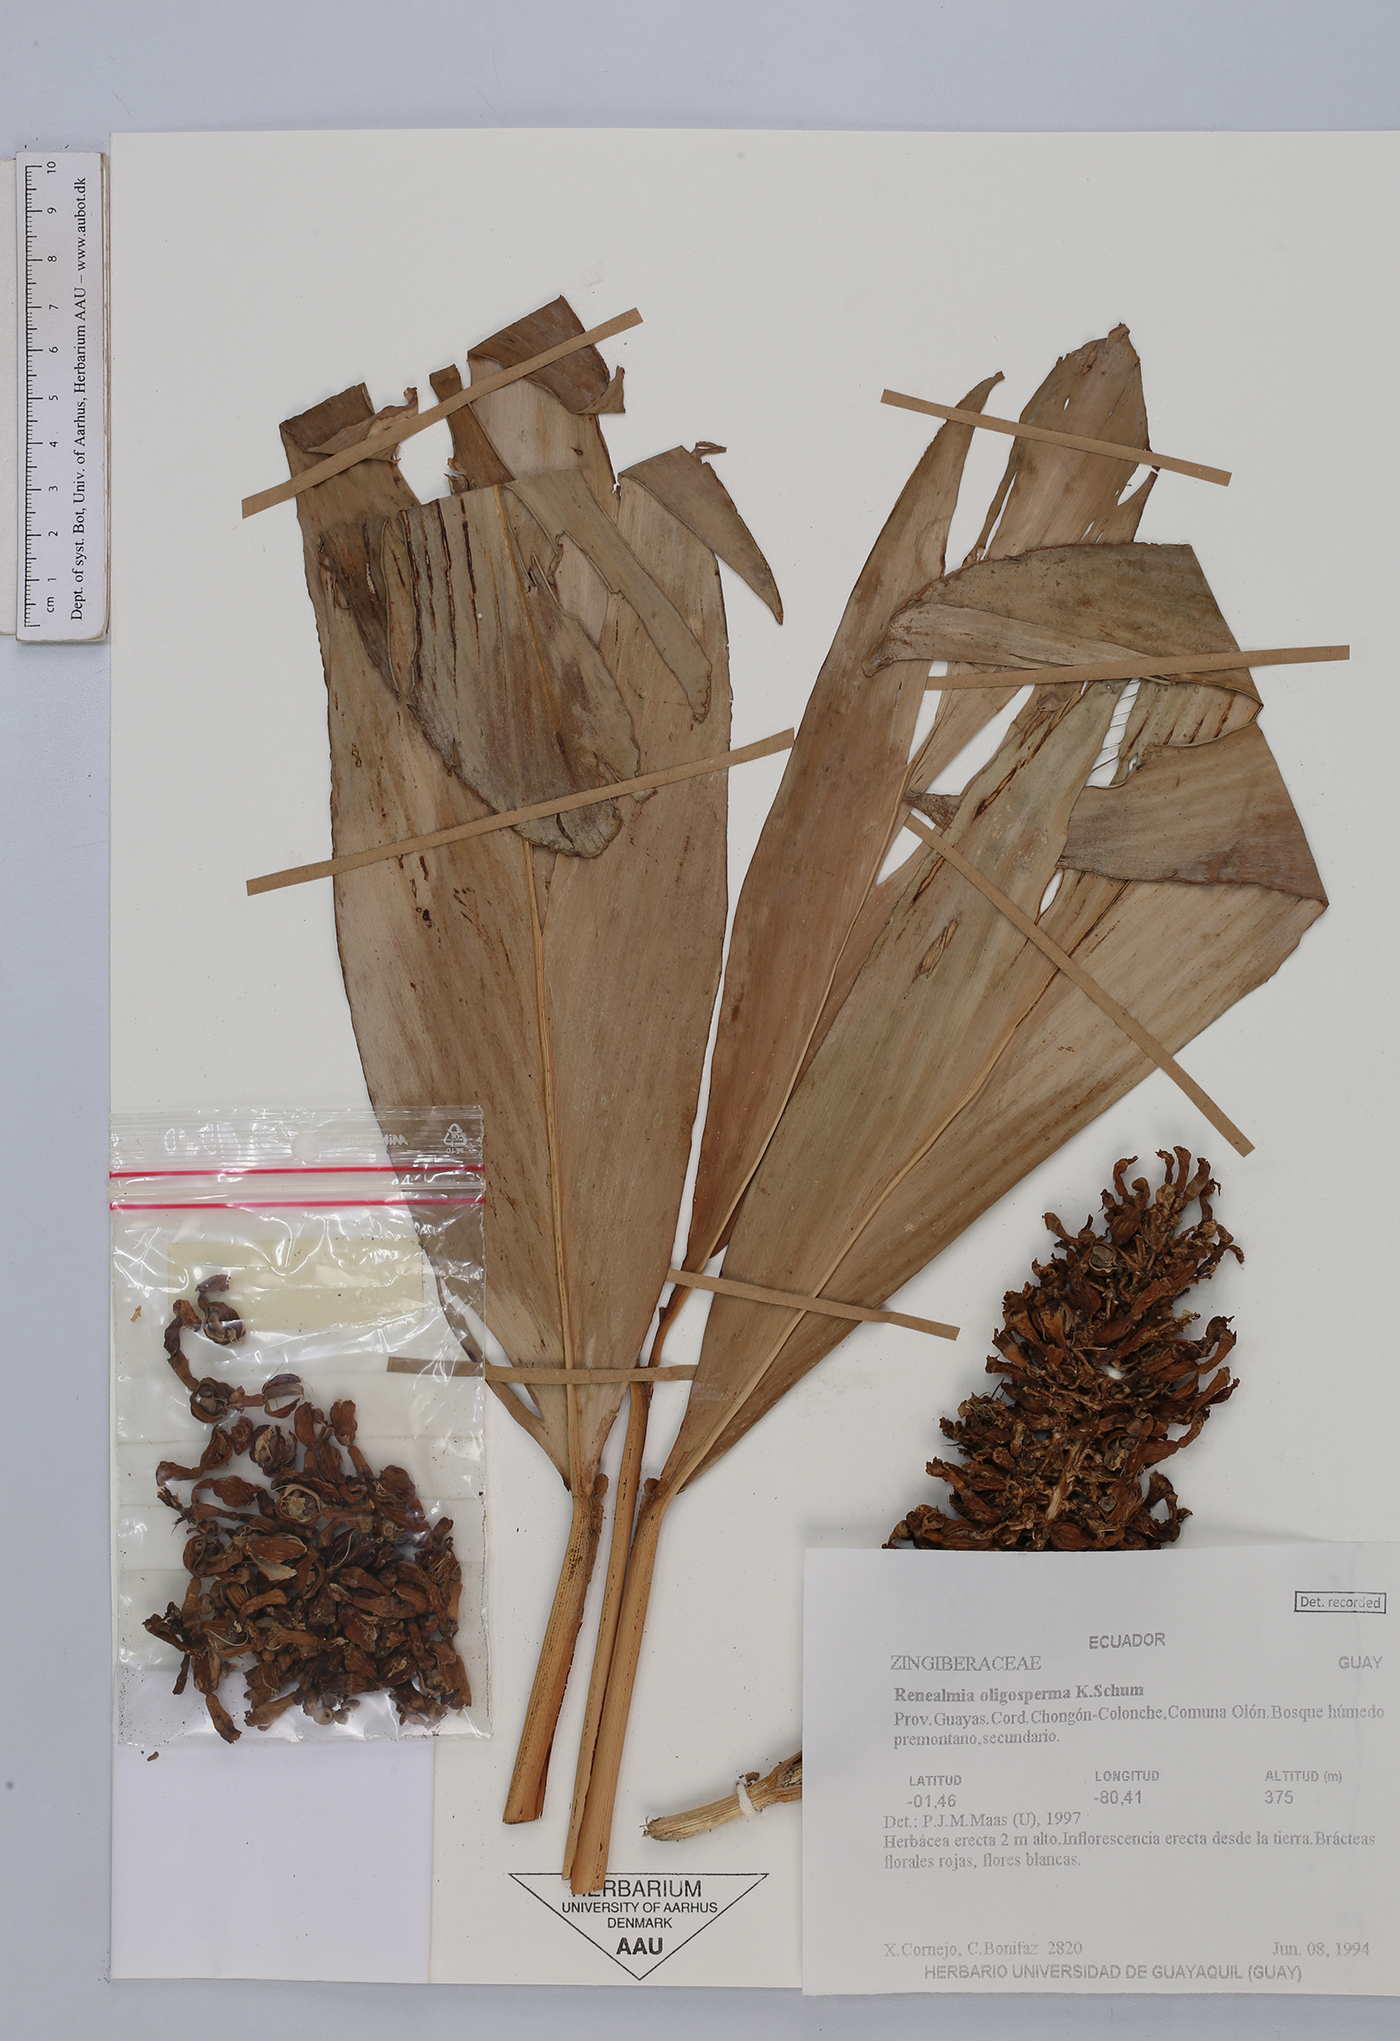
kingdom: Plantae
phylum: Tracheophyta
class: Liliopsida
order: Zingiberales
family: Zingiberaceae
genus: Renealmia
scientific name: Renealmia oligosperma
